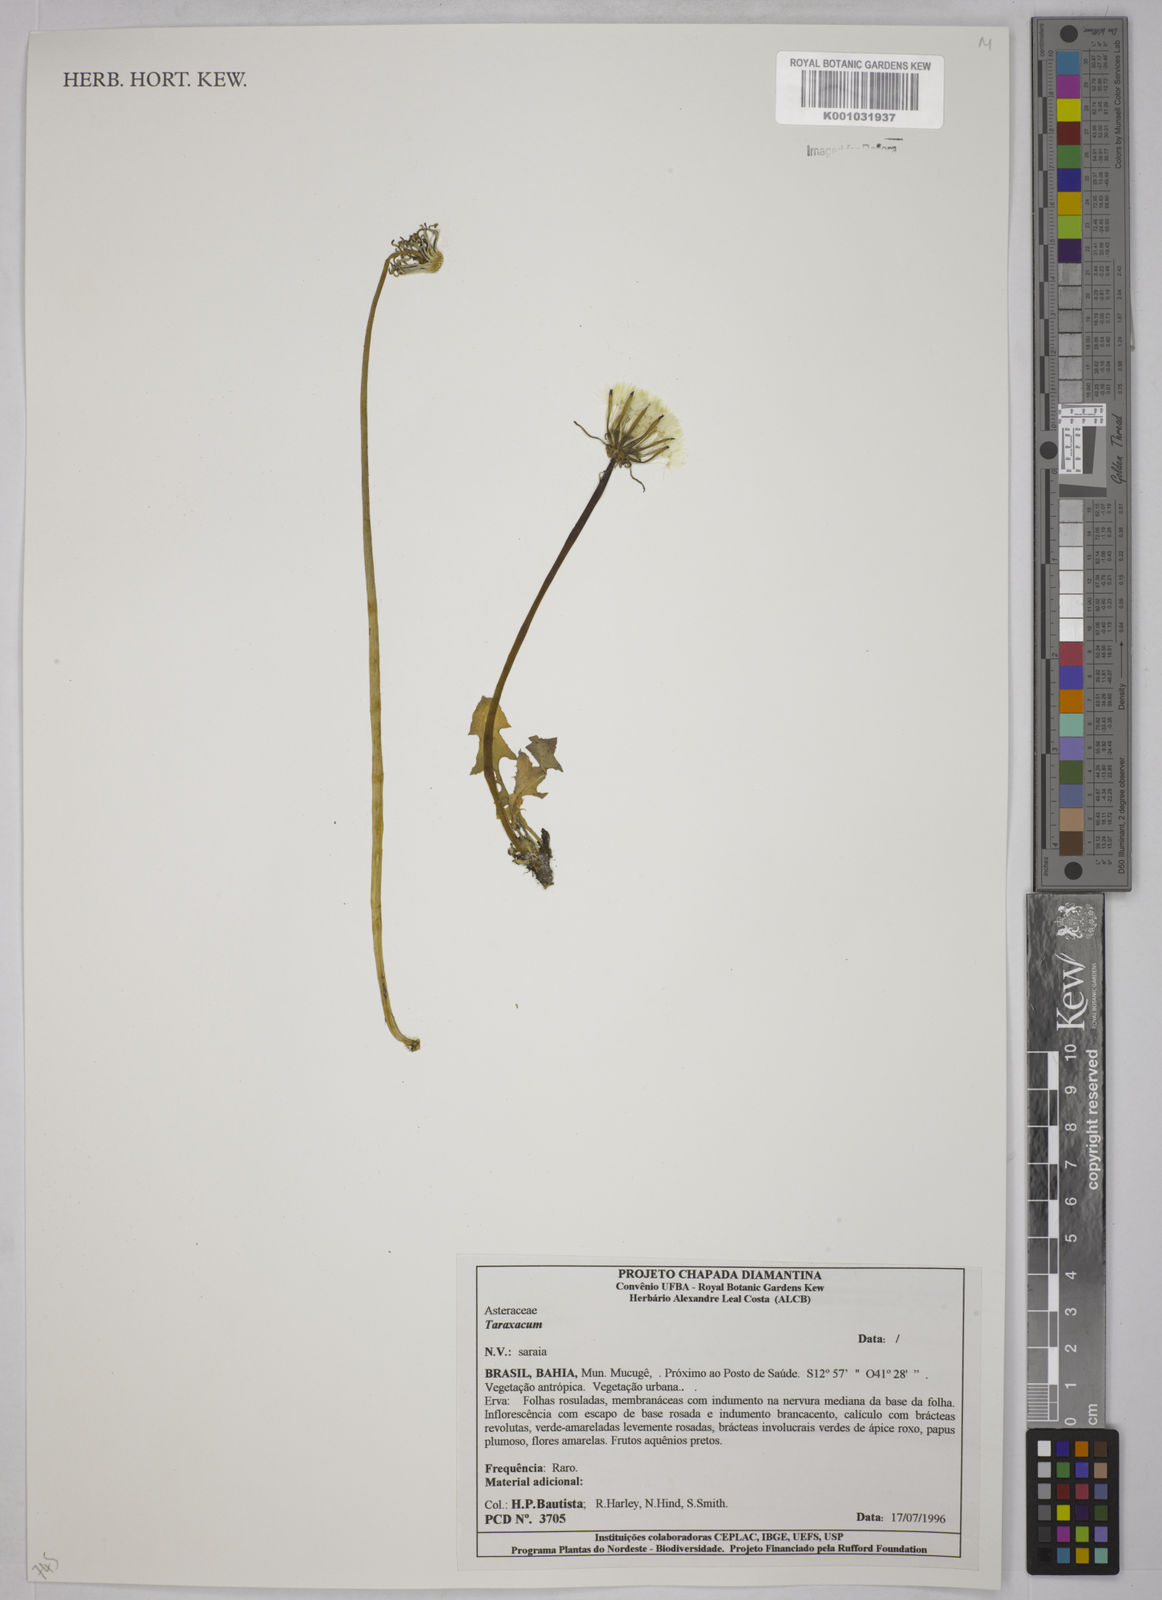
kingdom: Plantae
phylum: Tracheophyta
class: Magnoliopsida
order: Asterales
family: Asteraceae
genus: Taraxacum
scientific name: Taraxacum
